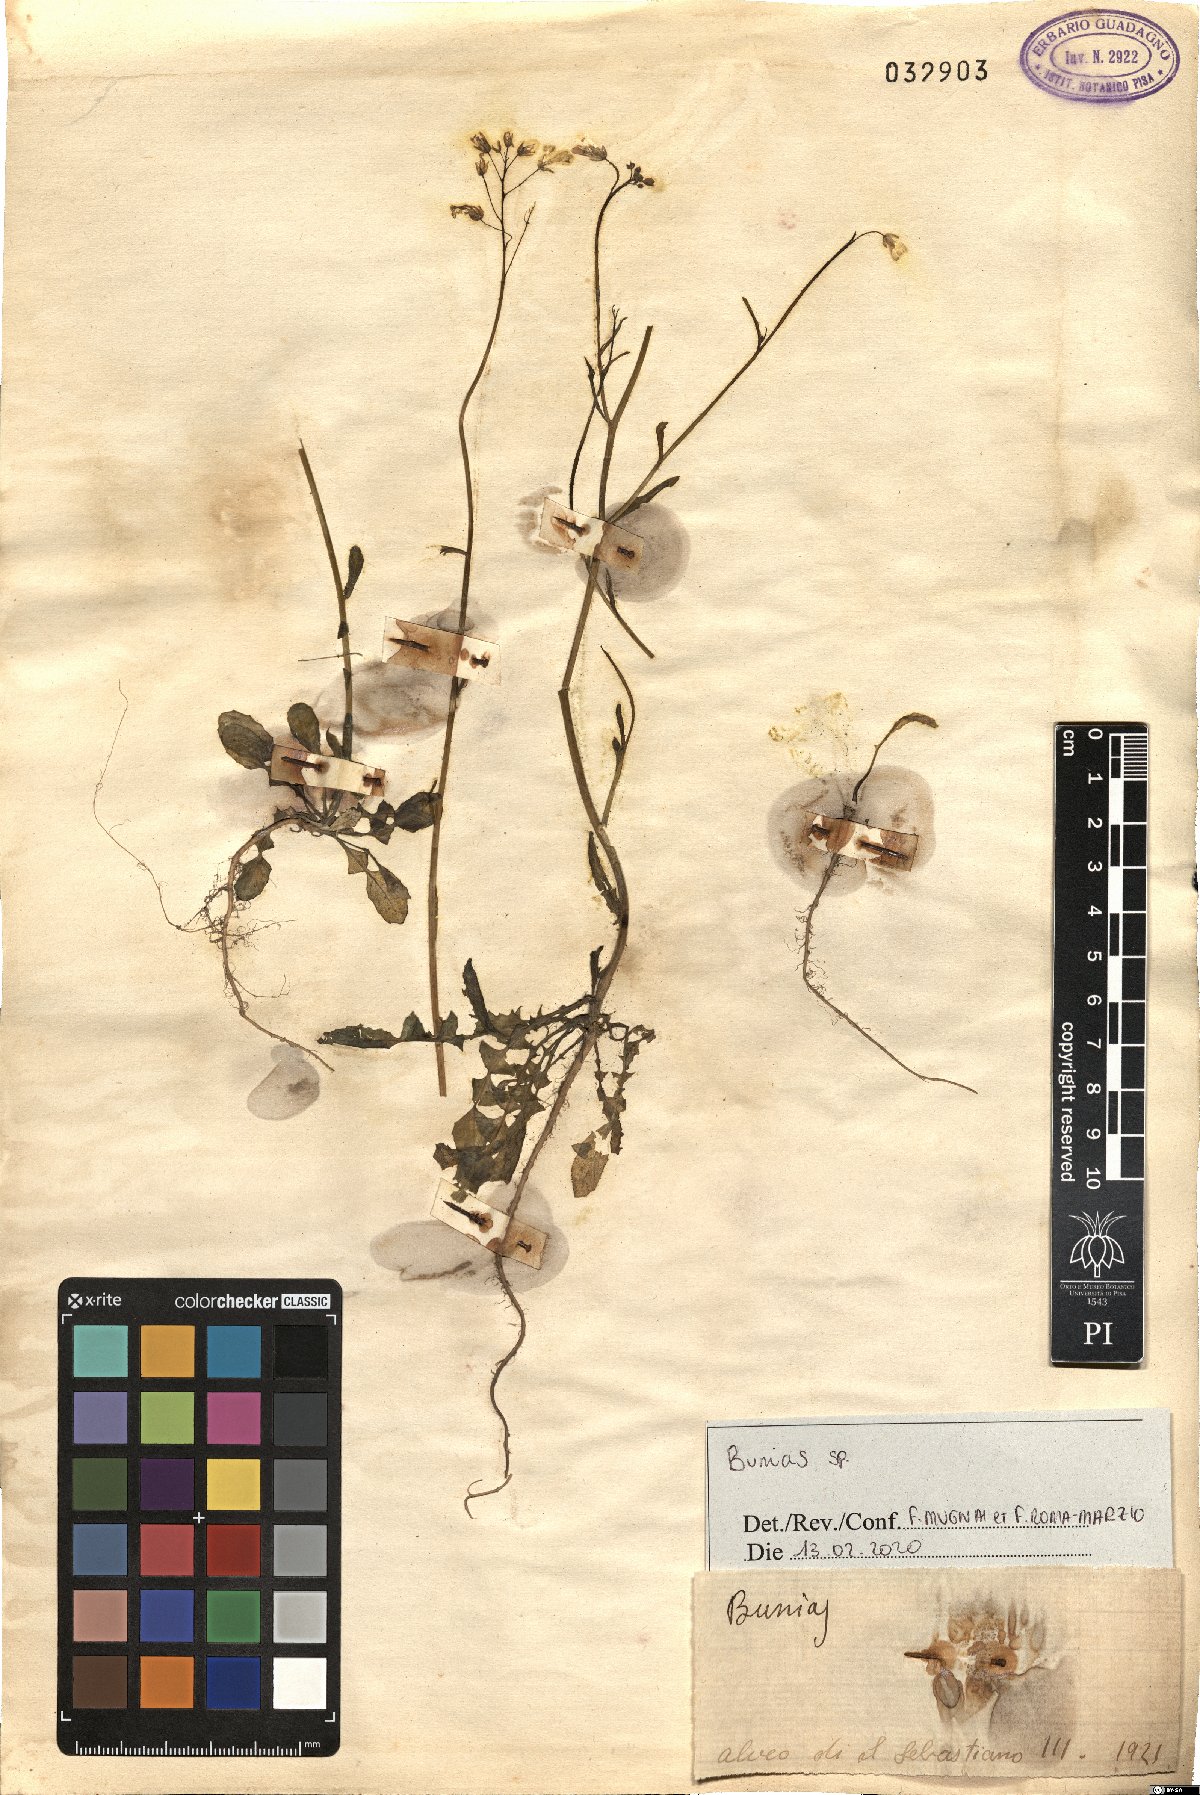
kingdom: Plantae
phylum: Tracheophyta
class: Magnoliopsida
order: Brassicales
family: Brassicaceae
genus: Bunias
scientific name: Bunias
